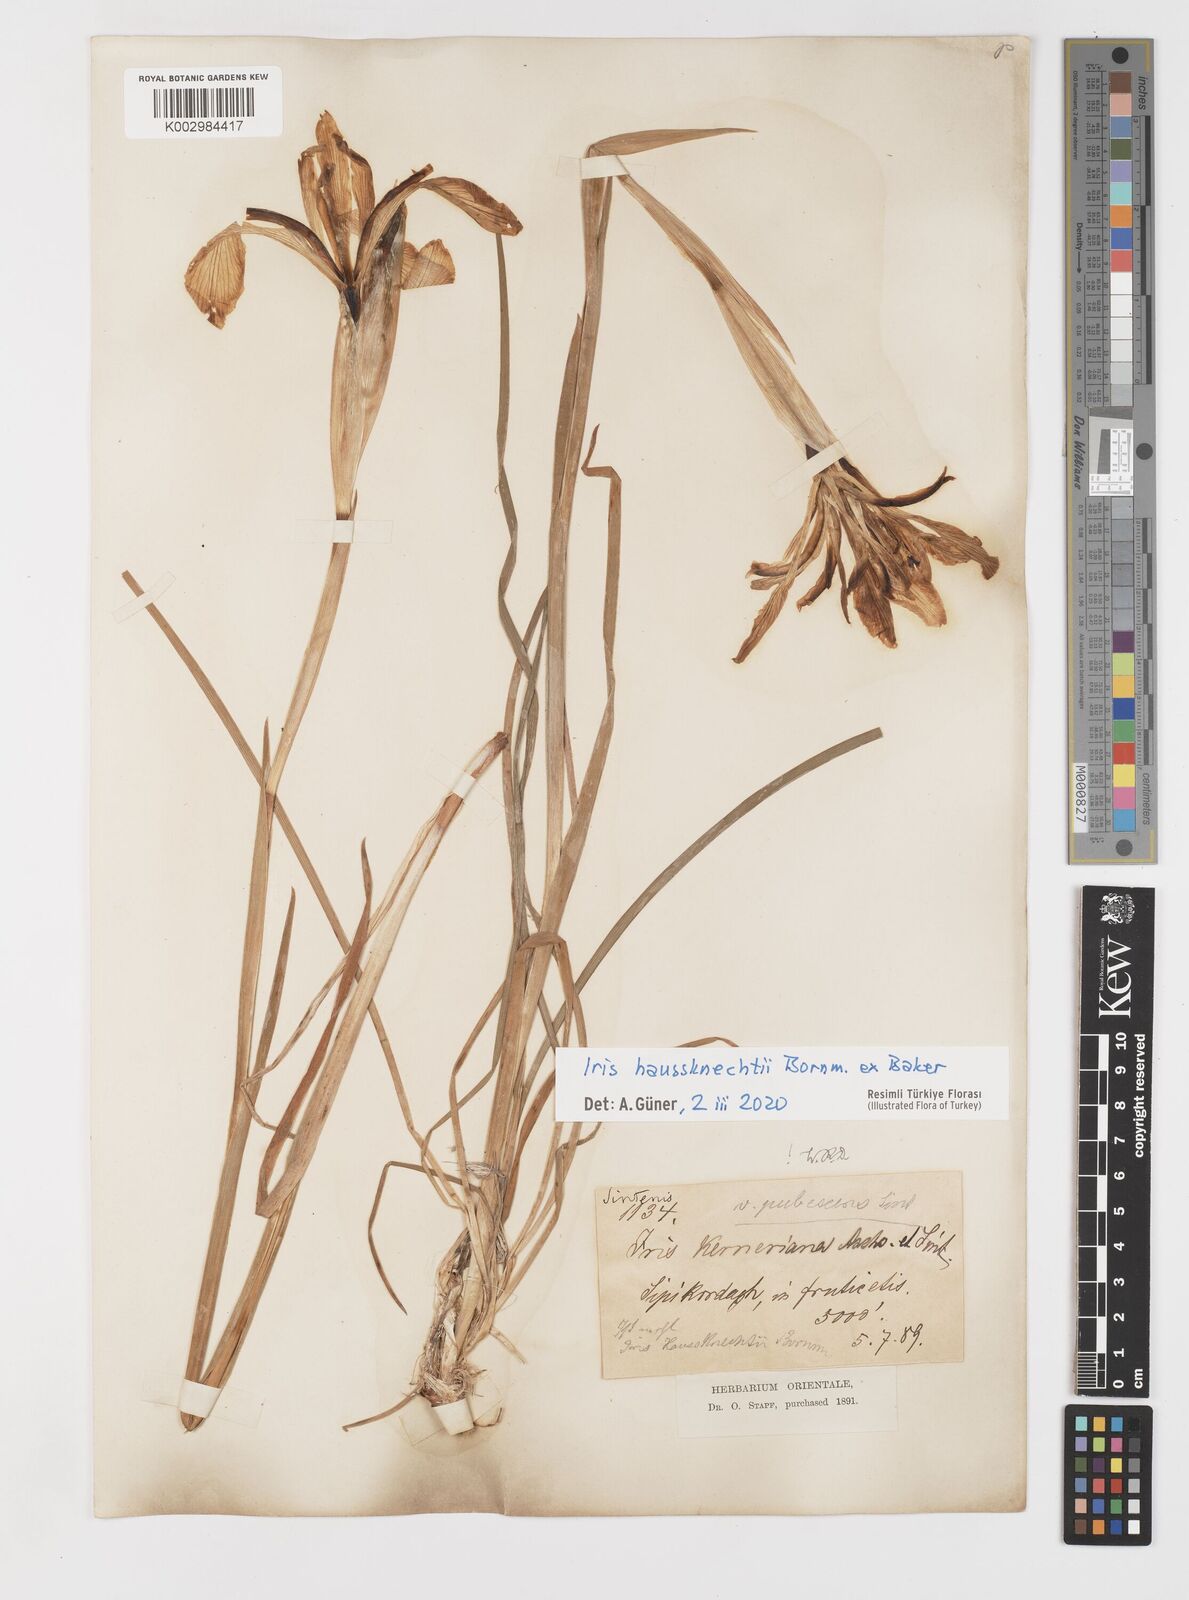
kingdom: Plantae
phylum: Tracheophyta
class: Liliopsida
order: Asparagales
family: Iridaceae
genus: Iris
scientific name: Iris haussknechtii
